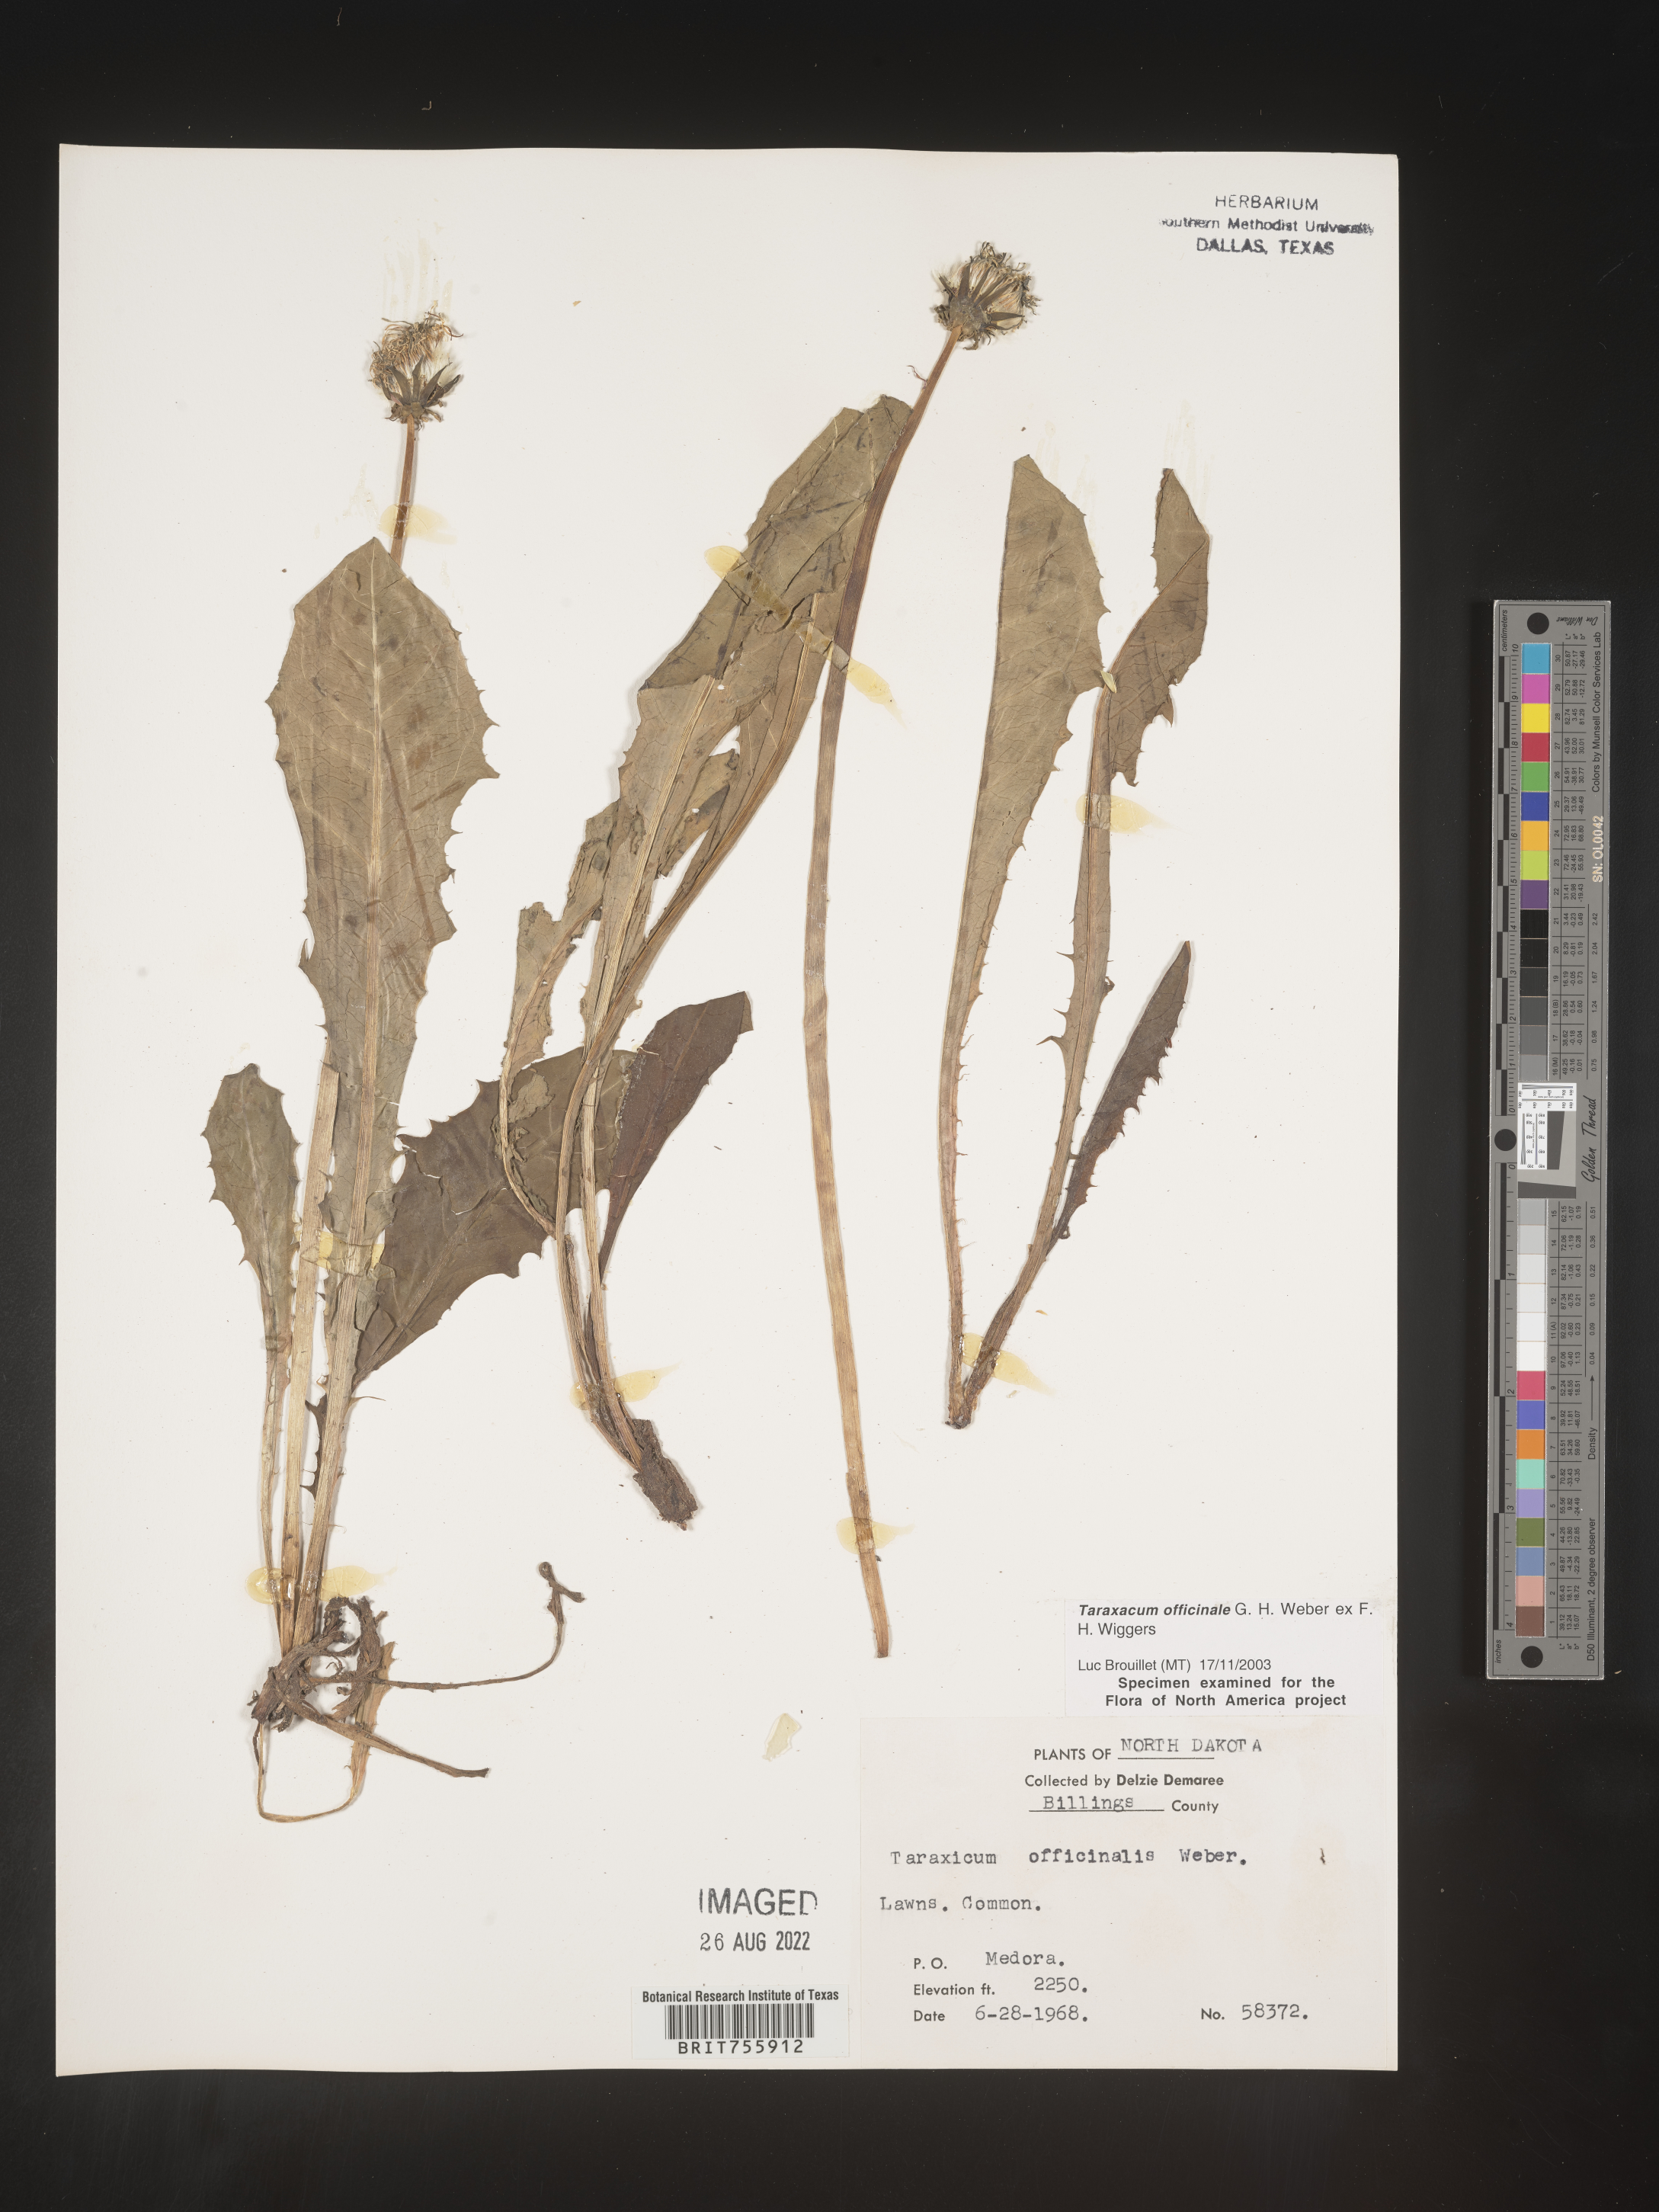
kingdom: Plantae
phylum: Tracheophyta
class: Magnoliopsida
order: Asterales
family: Asteraceae
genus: Taraxacum
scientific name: Taraxacum officinale
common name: Common dandelion
